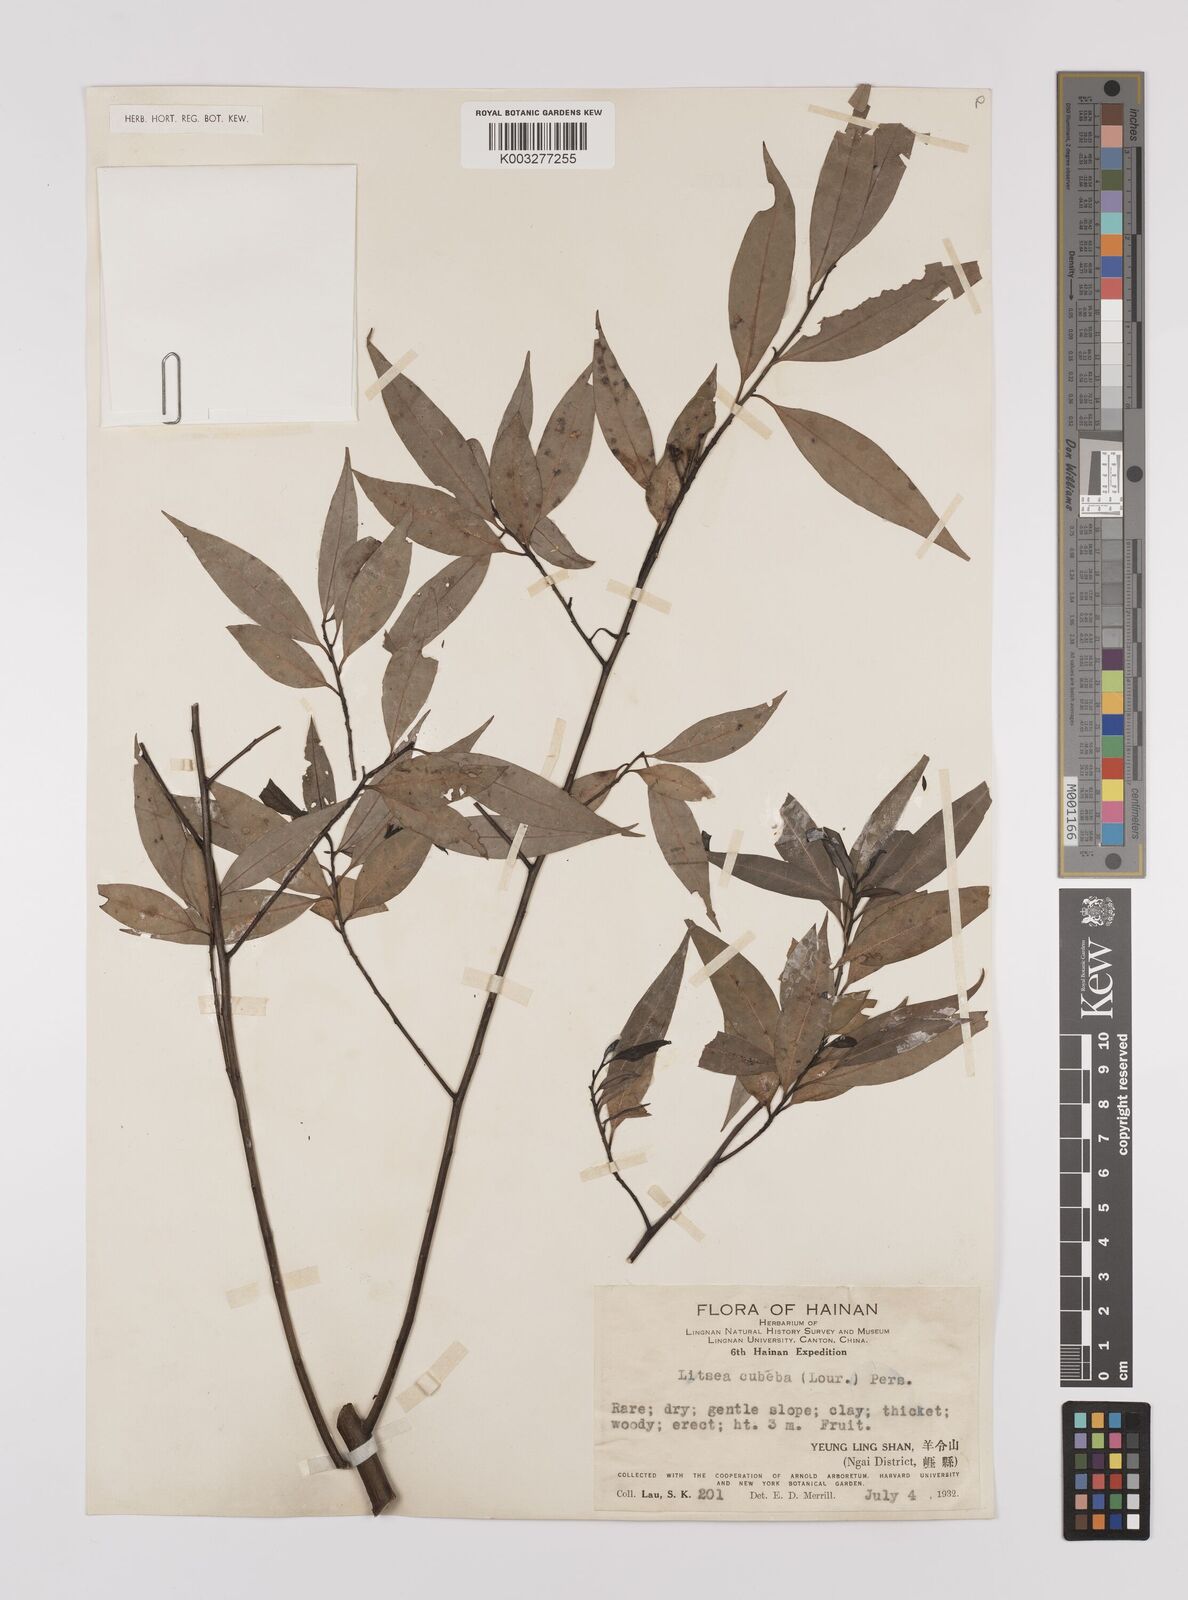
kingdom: Plantae
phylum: Tracheophyta
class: Magnoliopsida
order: Laurales
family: Lauraceae
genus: Litsea
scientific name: Litsea cubeba
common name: Mountain-pepper
